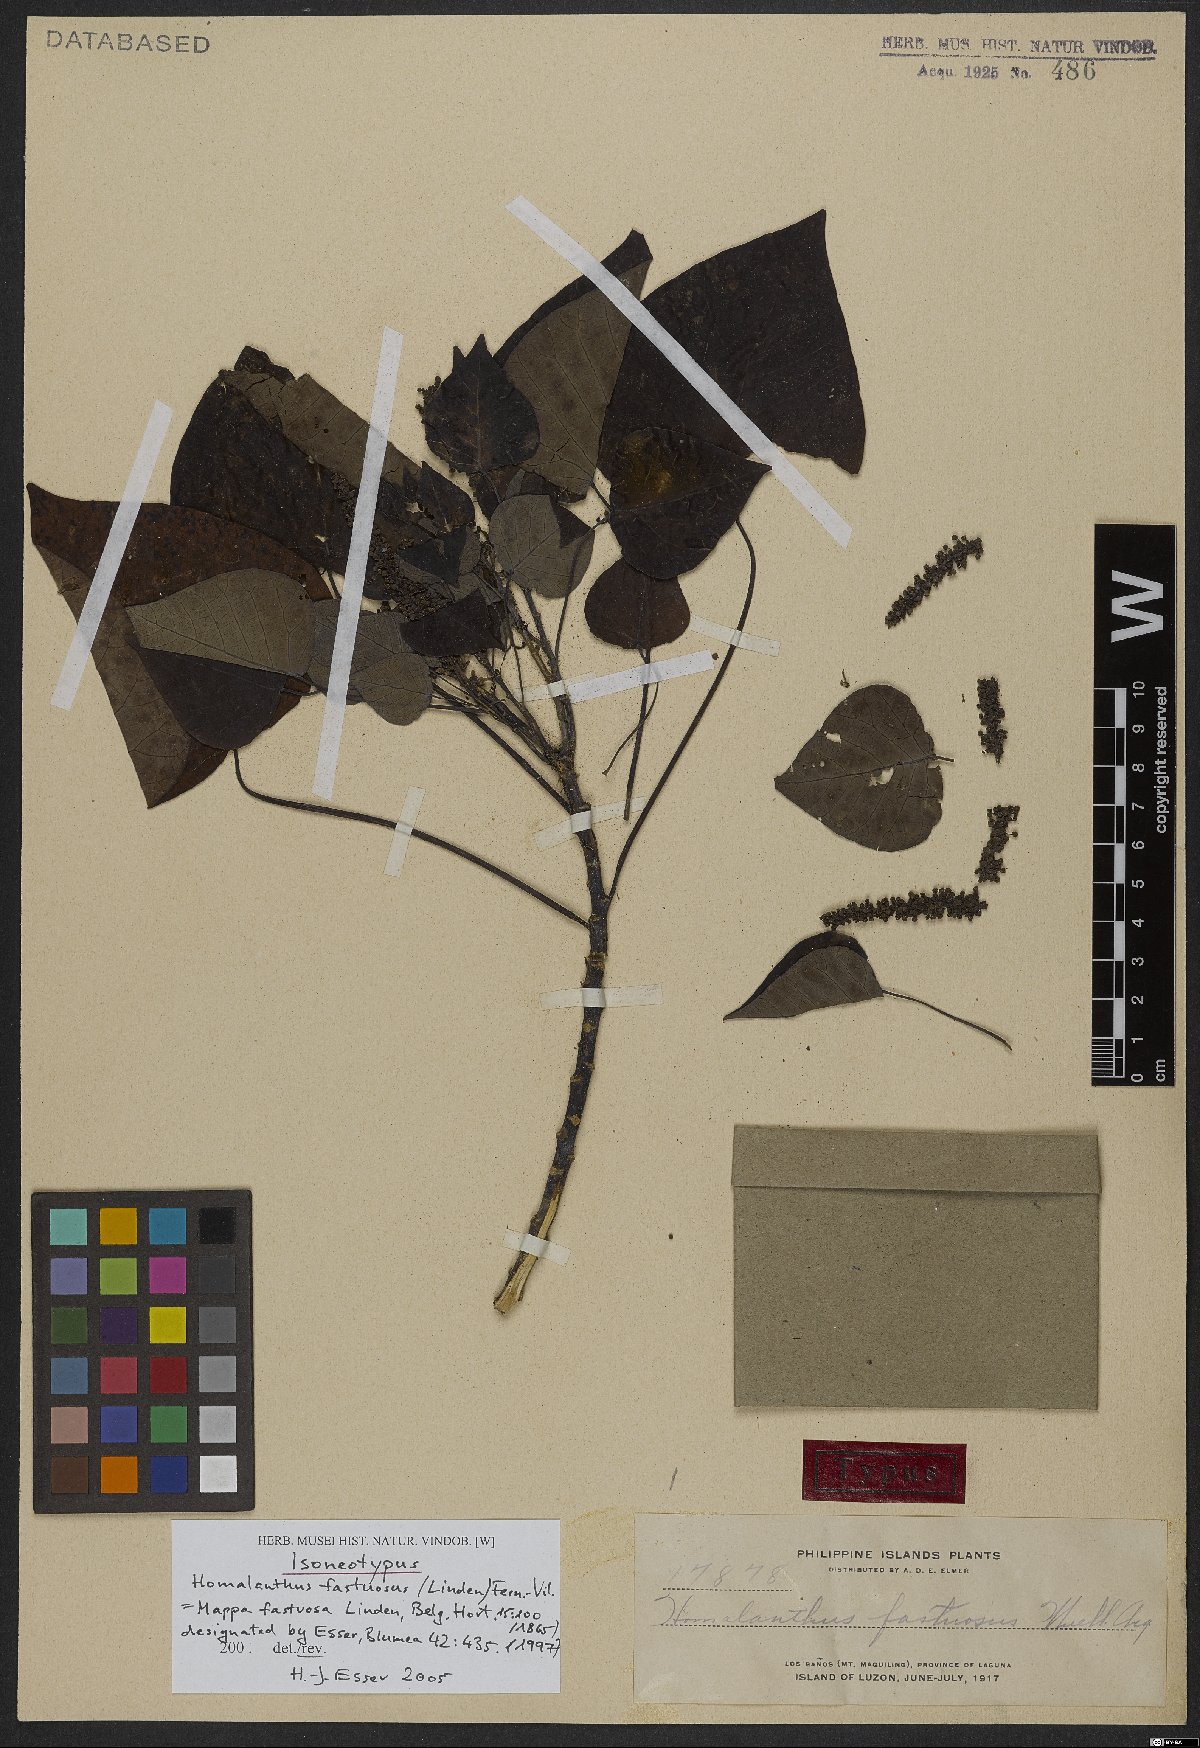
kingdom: Plantae
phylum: Tracheophyta
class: Magnoliopsida
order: Malpighiales
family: Euphorbiaceae
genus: Homalanthus
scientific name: Homalanthus fastuosus
